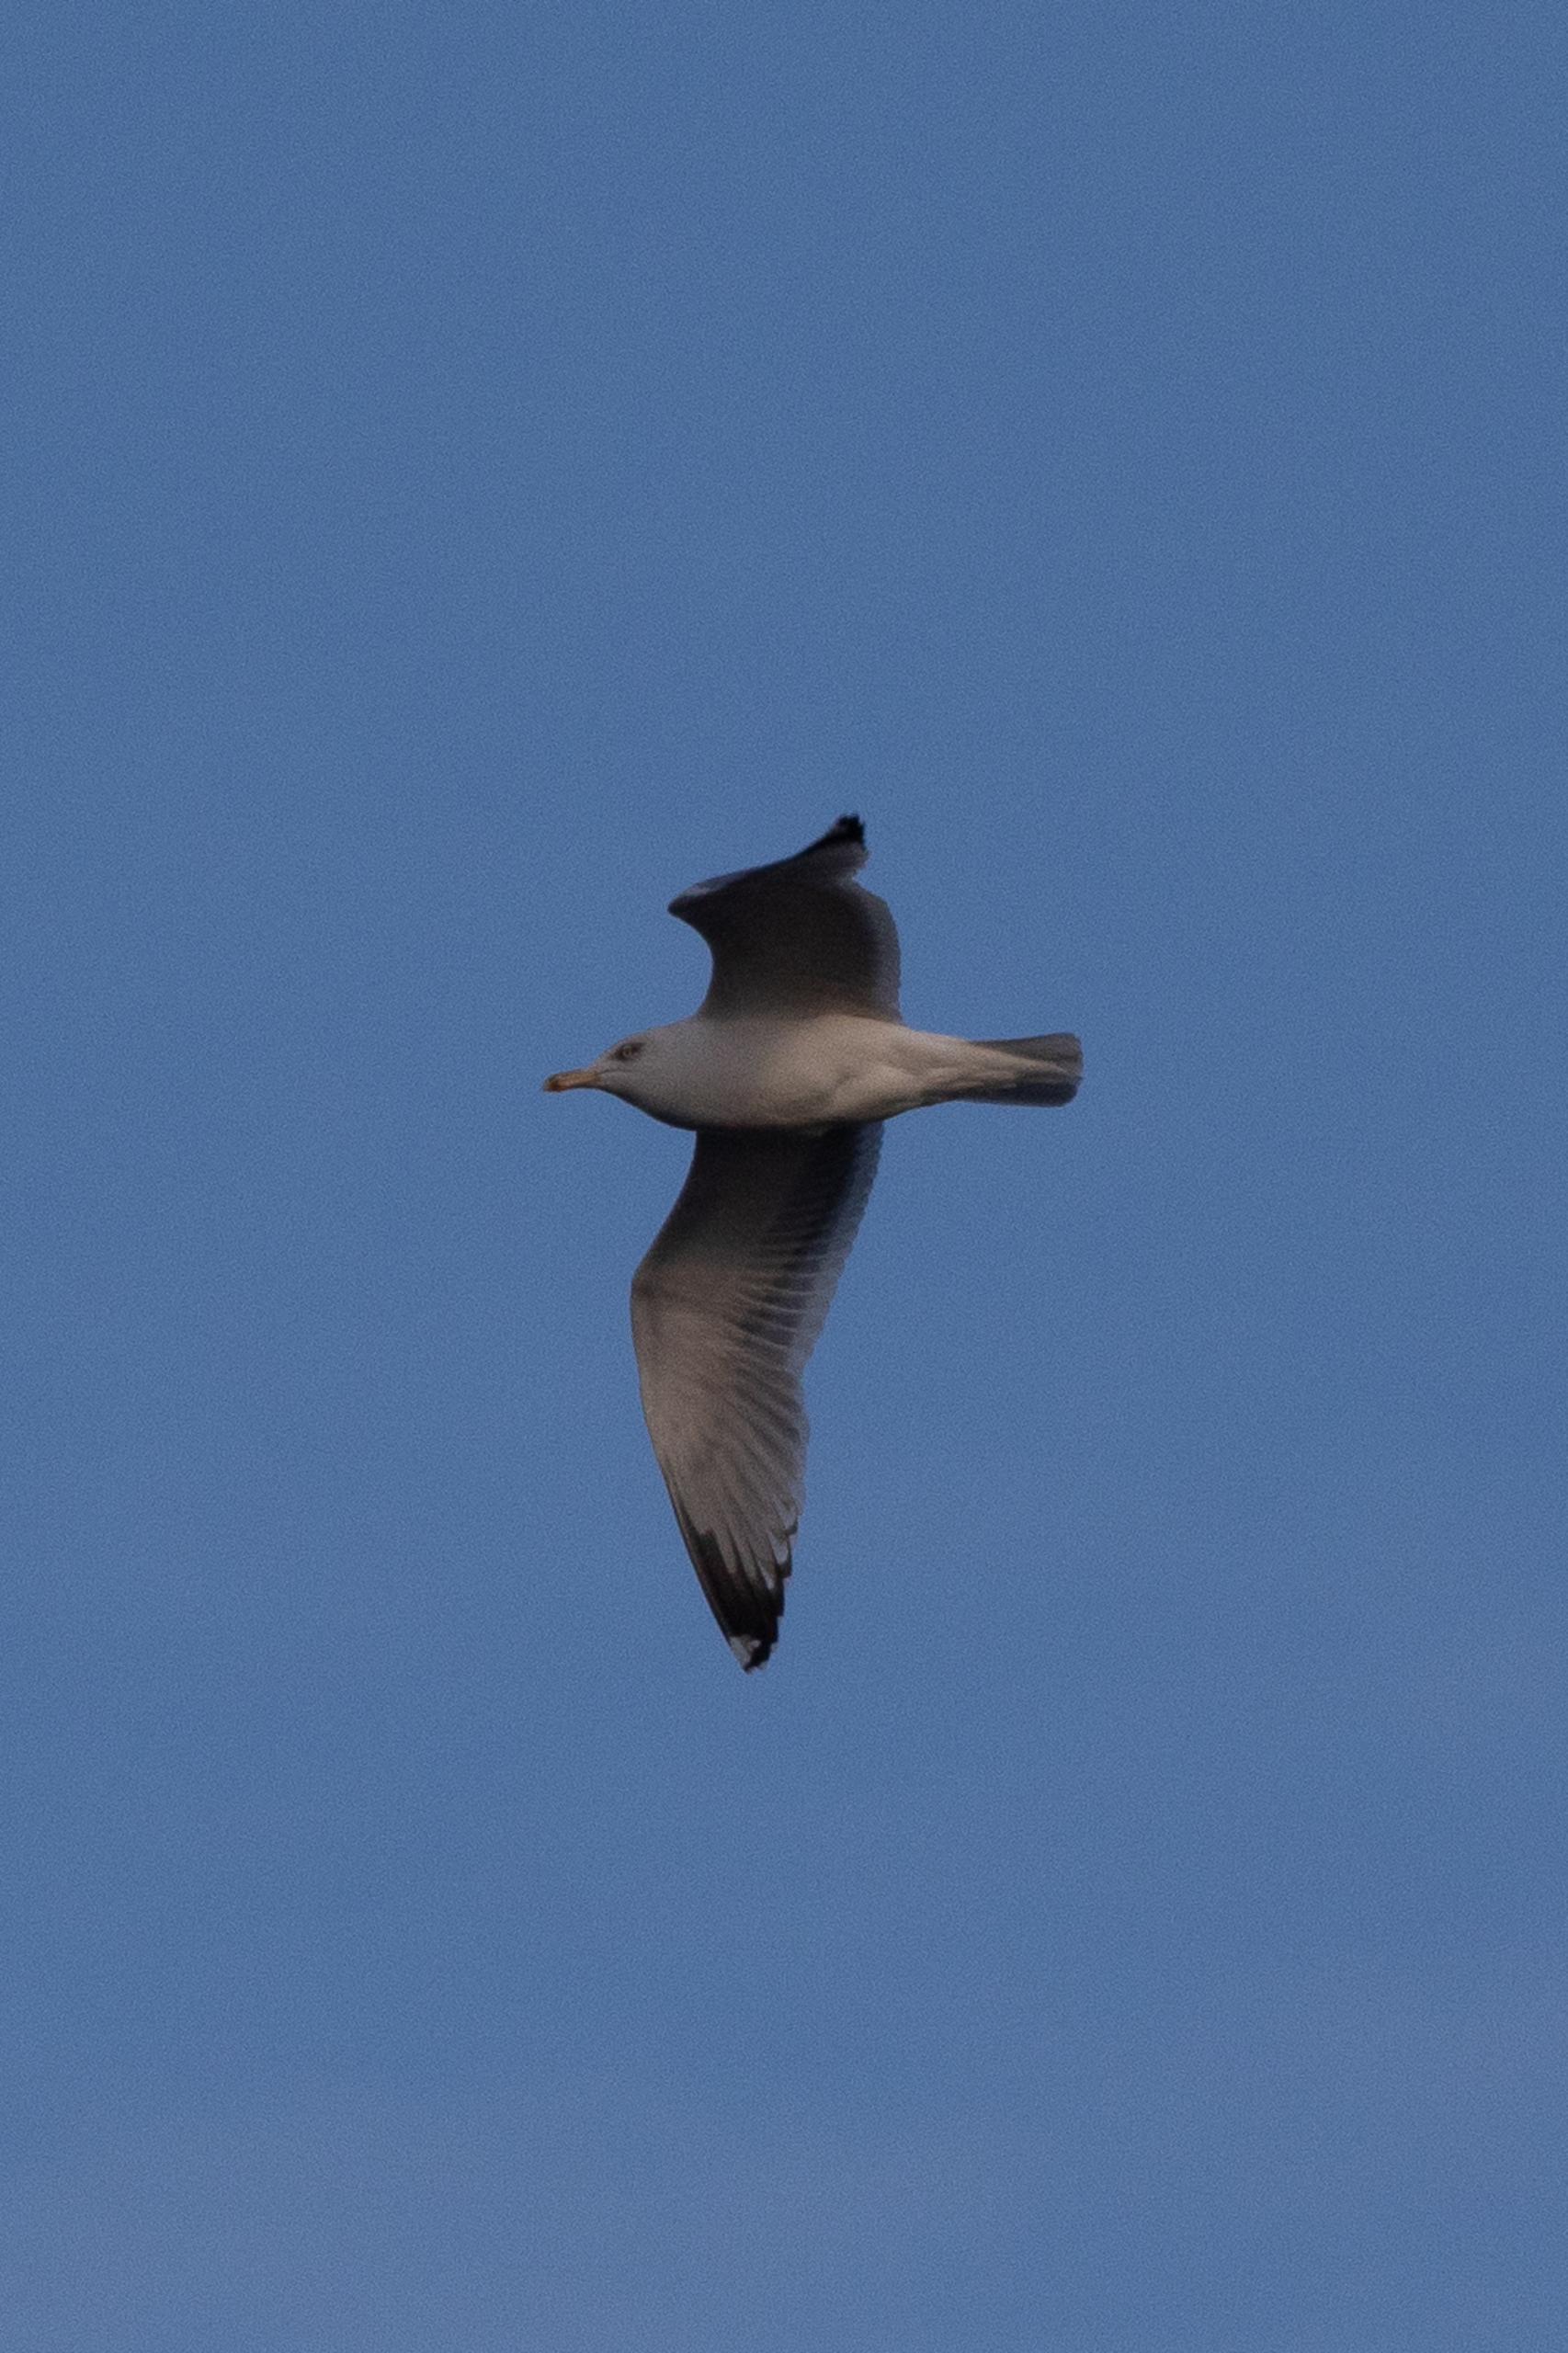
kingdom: Animalia
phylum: Chordata
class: Aves
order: Charadriiformes
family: Laridae
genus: Larus
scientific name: Larus argentatus
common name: Sølvmåge
